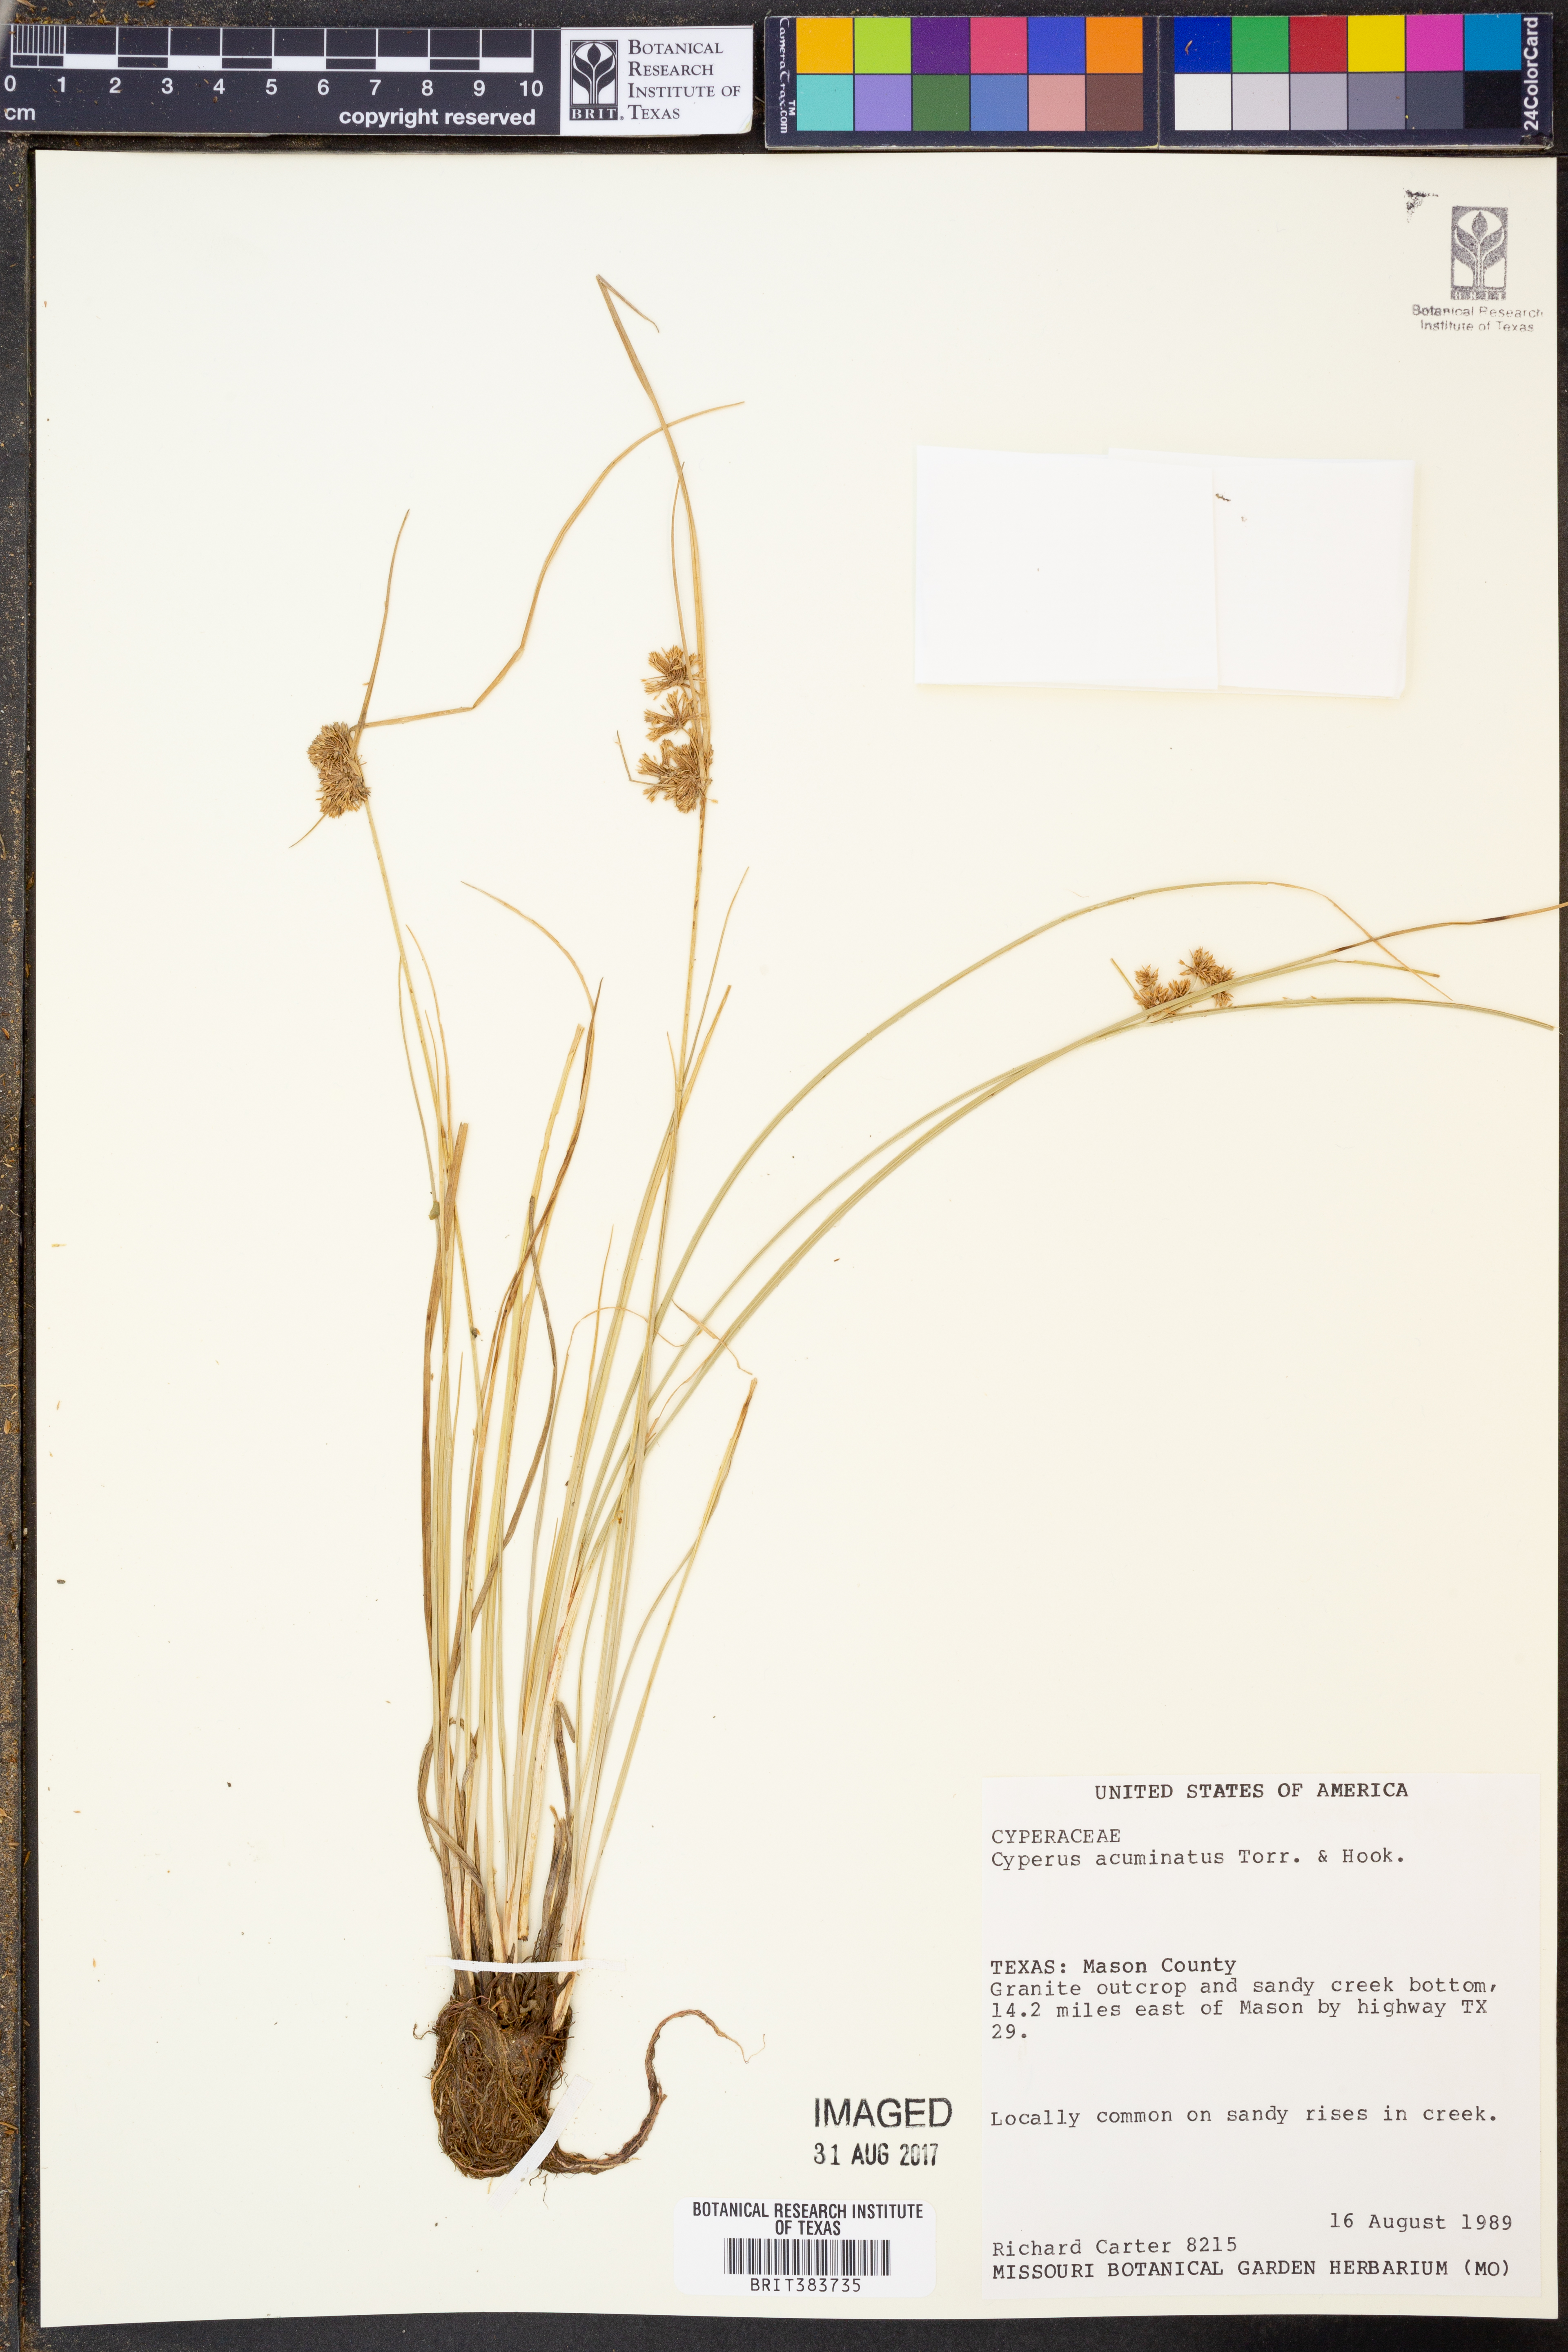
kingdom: Plantae
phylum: Tracheophyta
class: Liliopsida
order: Poales
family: Cyperaceae
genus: Cyperus
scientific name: Cyperus acuminatus
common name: Short-pointed cyperus
